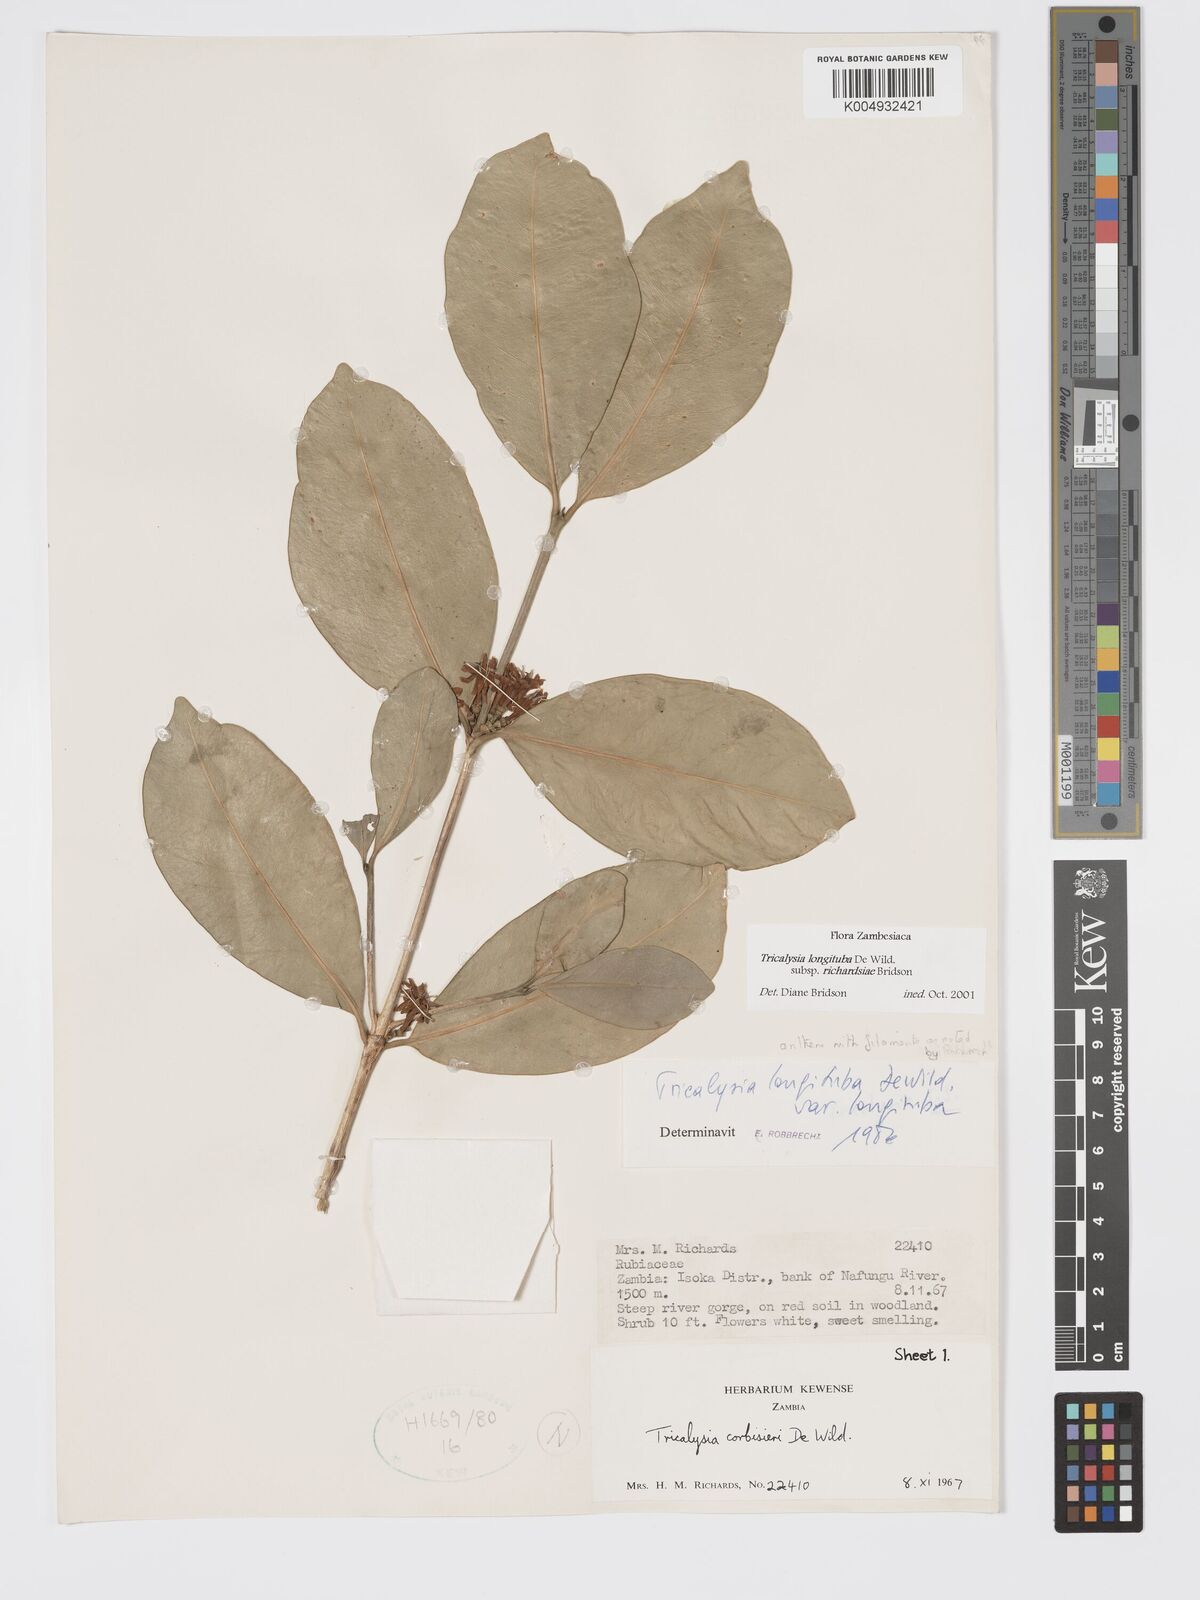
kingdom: Plantae
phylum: Tracheophyta
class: Magnoliopsida
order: Gentianales
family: Rubiaceae
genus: Tricalysia
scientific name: Tricalysia longituba
